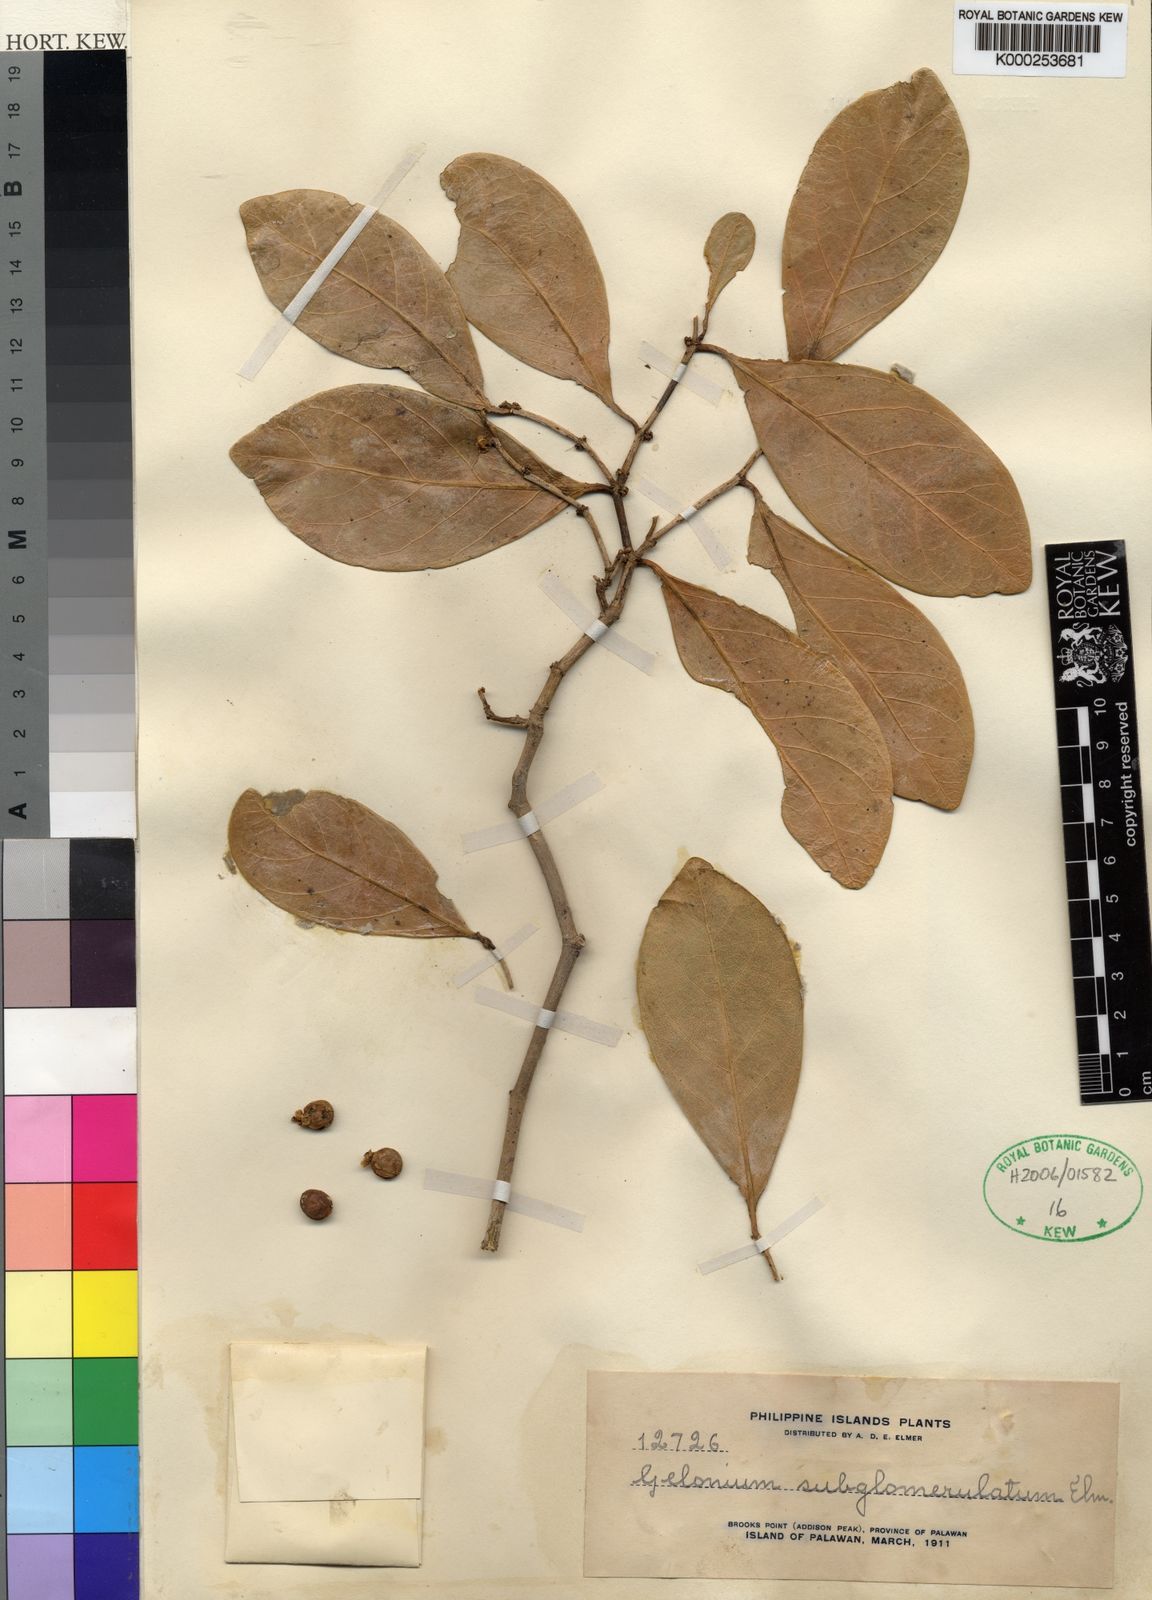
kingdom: Plantae
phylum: Tracheophyta
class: Magnoliopsida
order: Malpighiales
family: Euphorbiaceae
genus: Suregada
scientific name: Suregada glomerulata
